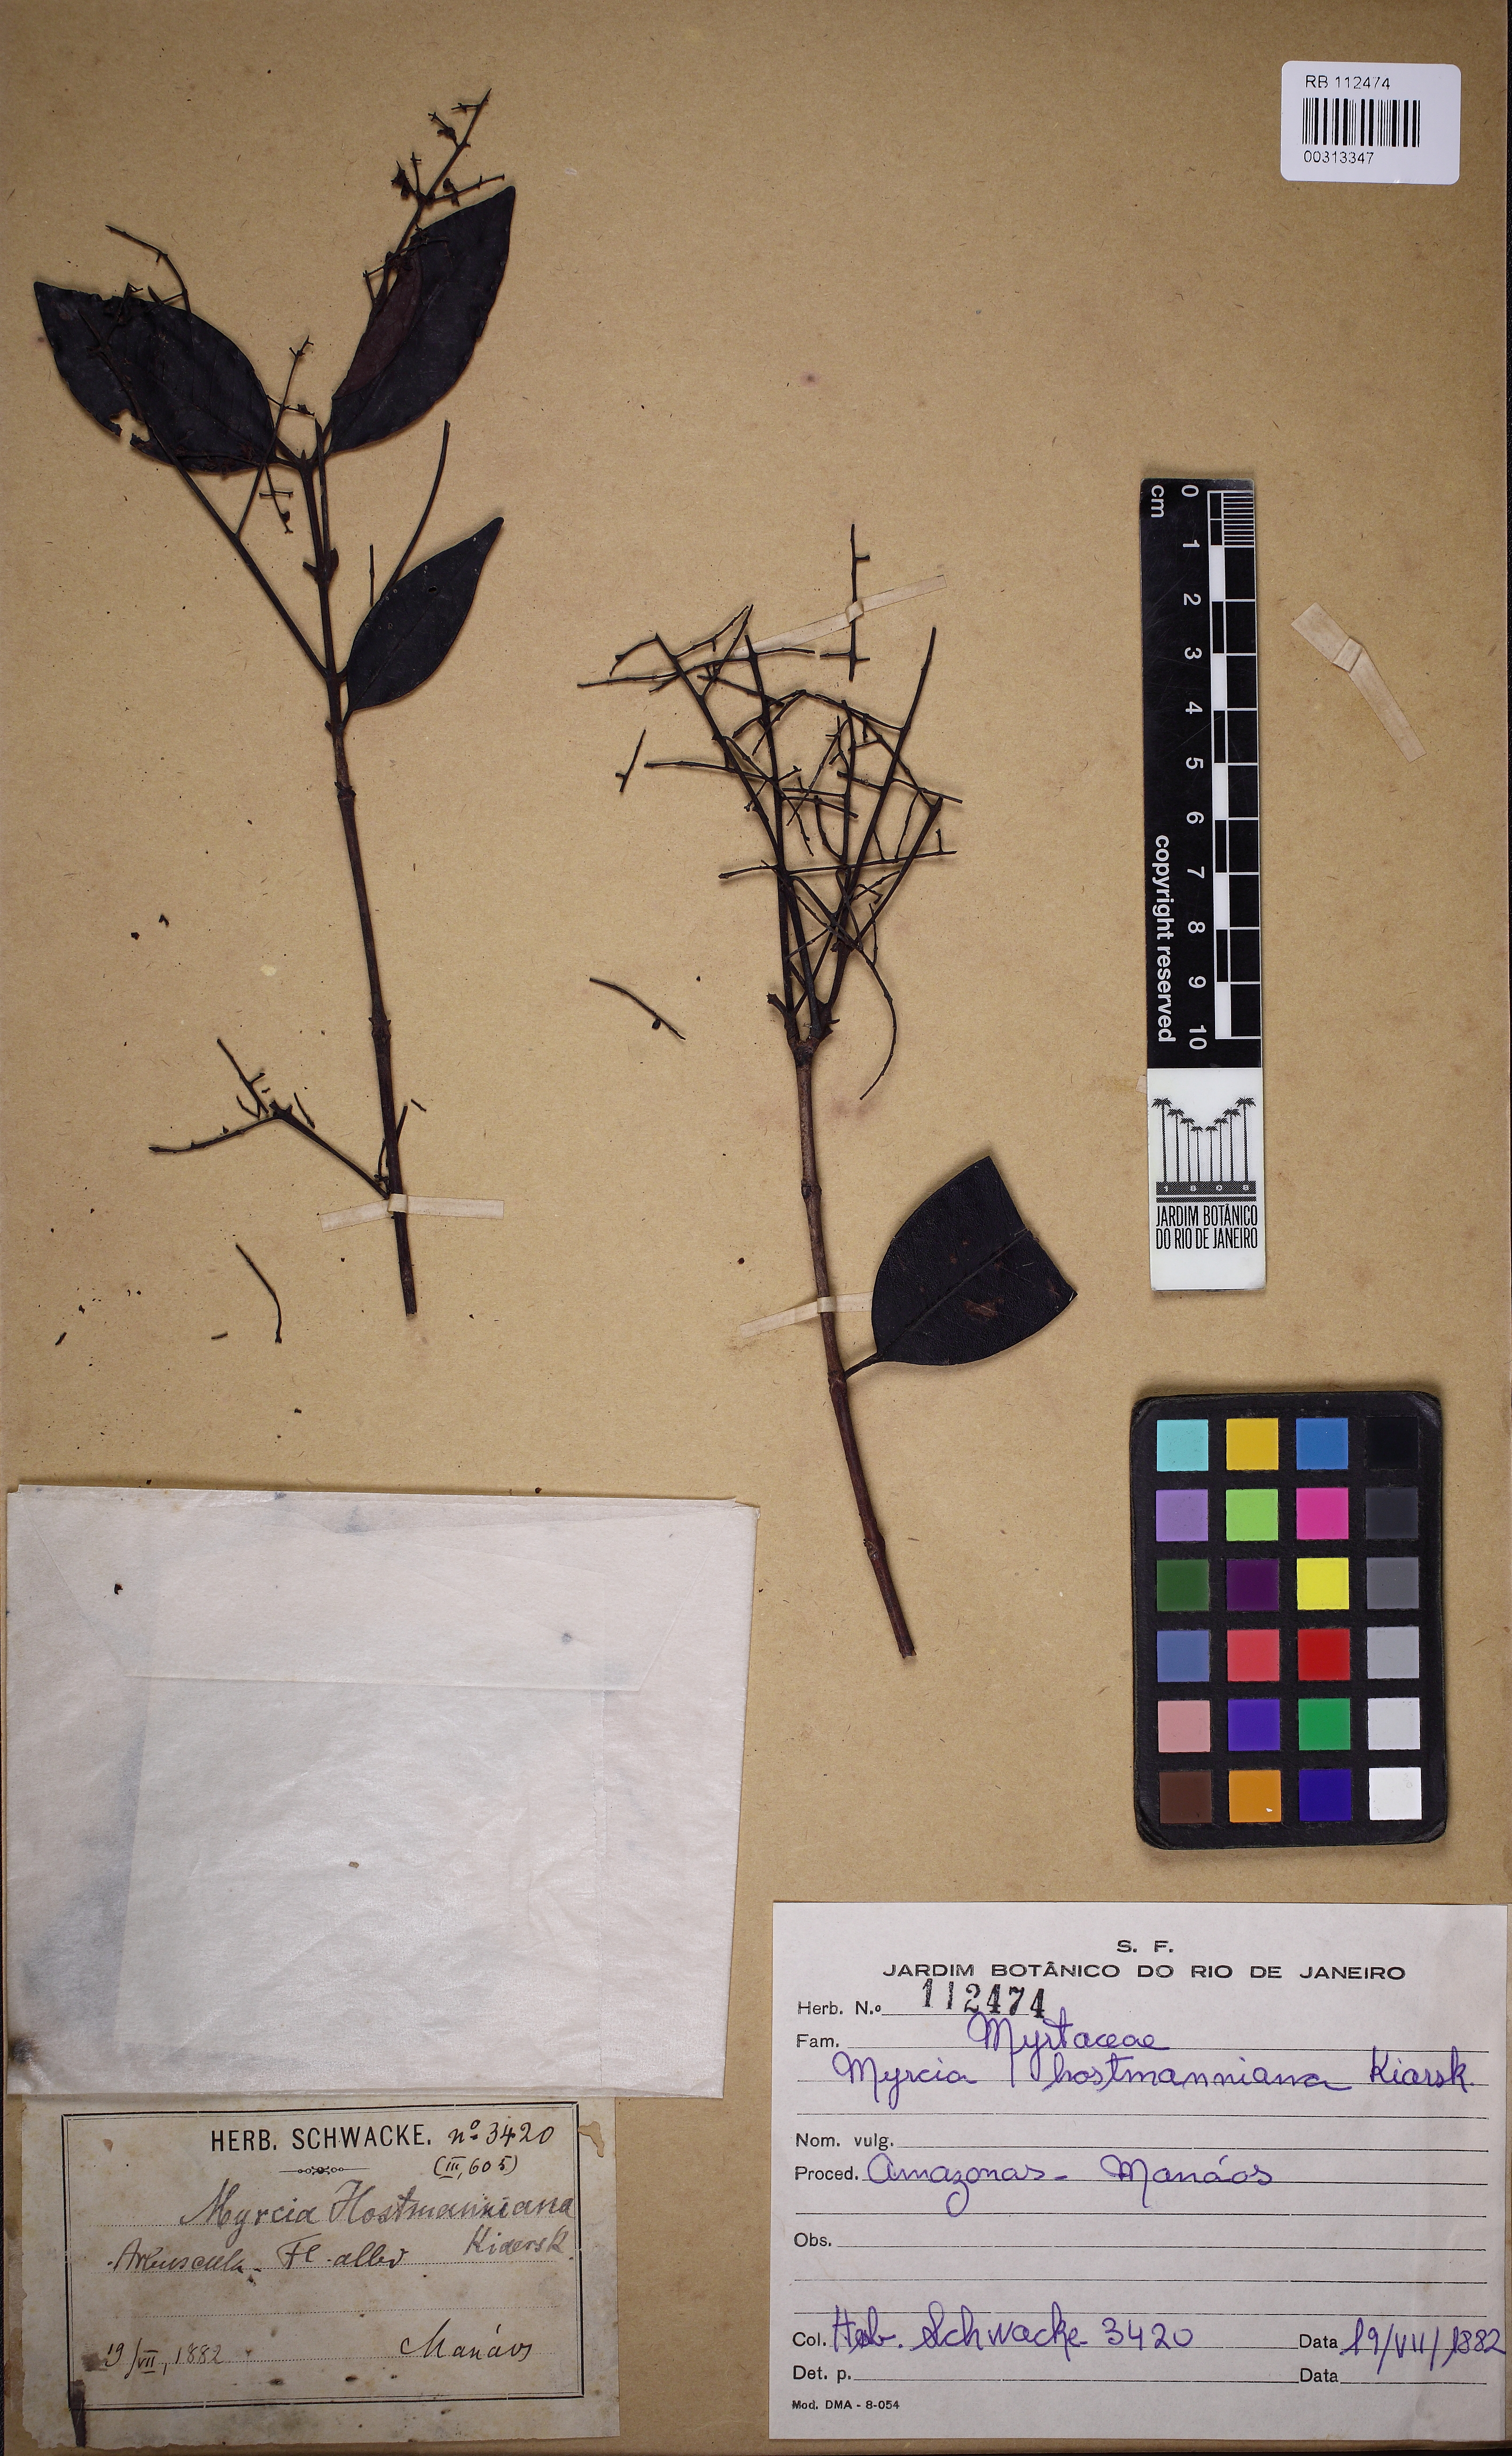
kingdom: Plantae
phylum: Tracheophyta
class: Magnoliopsida
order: Myrtales
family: Myrtaceae
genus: Myrcia
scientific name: Myrcia amazonica
